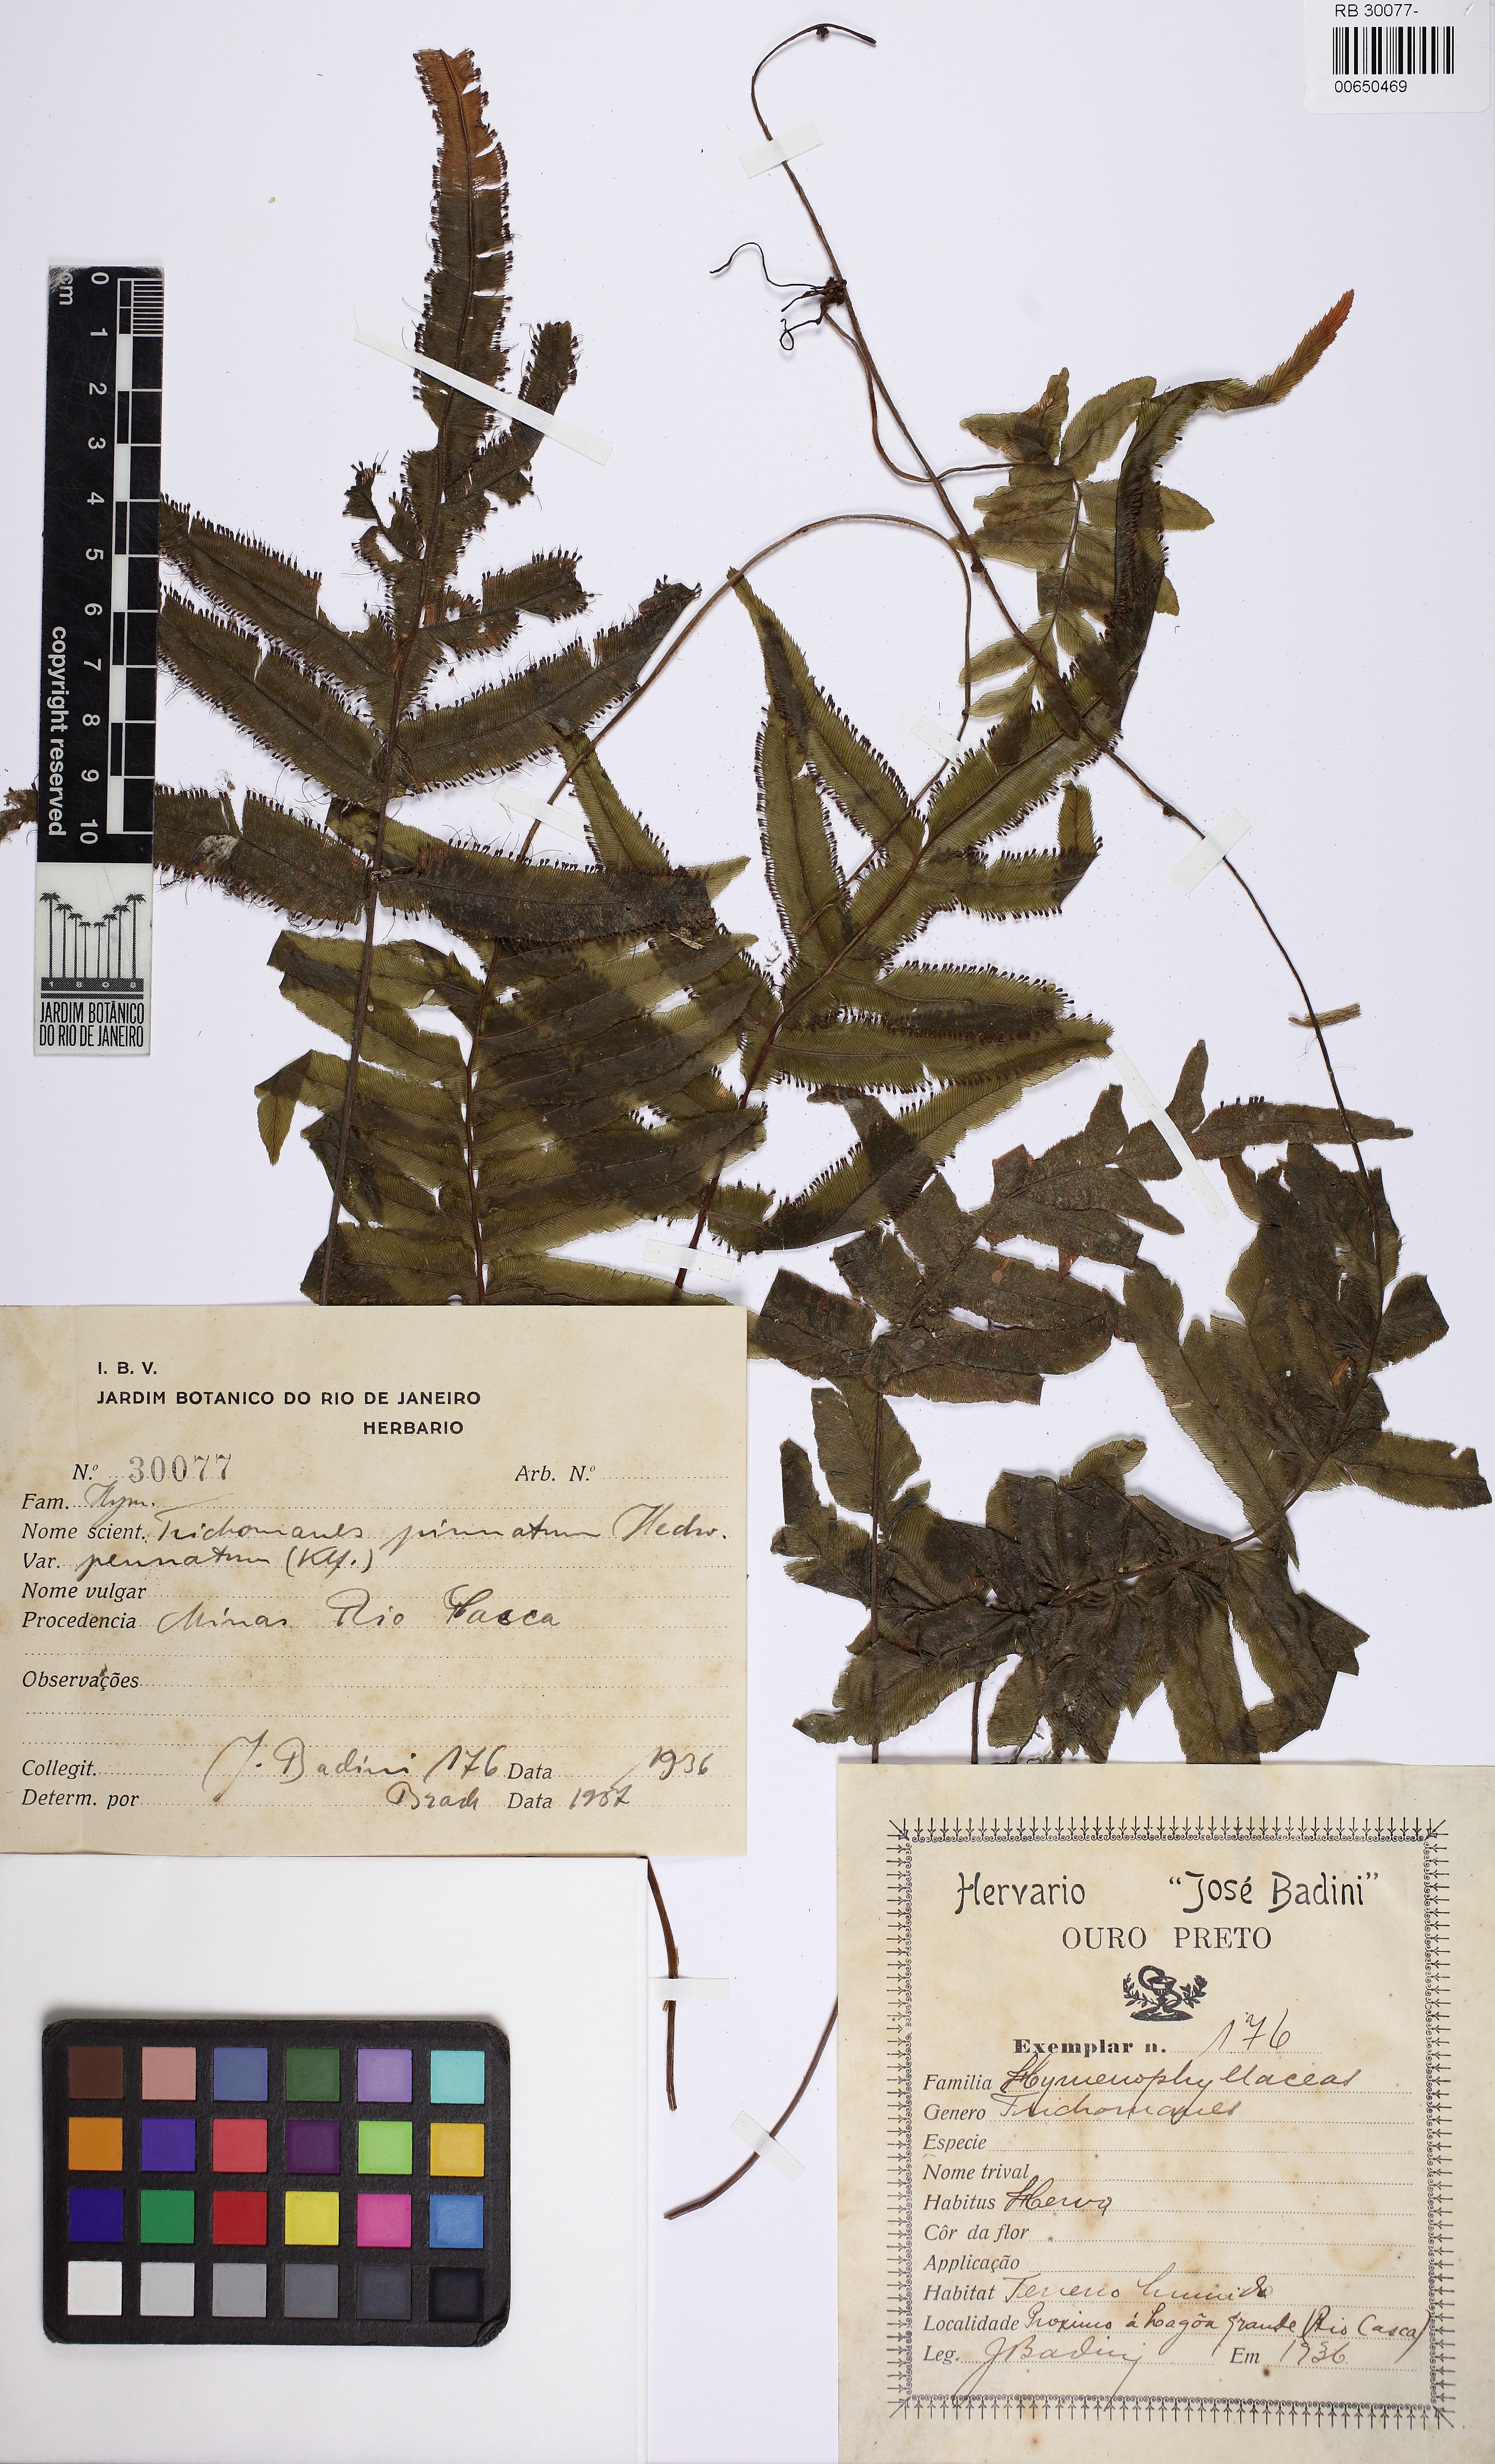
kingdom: Plantae
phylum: Tracheophyta
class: Polypodiopsida
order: Hymenophyllales
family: Hymenophyllaceae
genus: Trichomanes
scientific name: Trichomanes pinnatum
